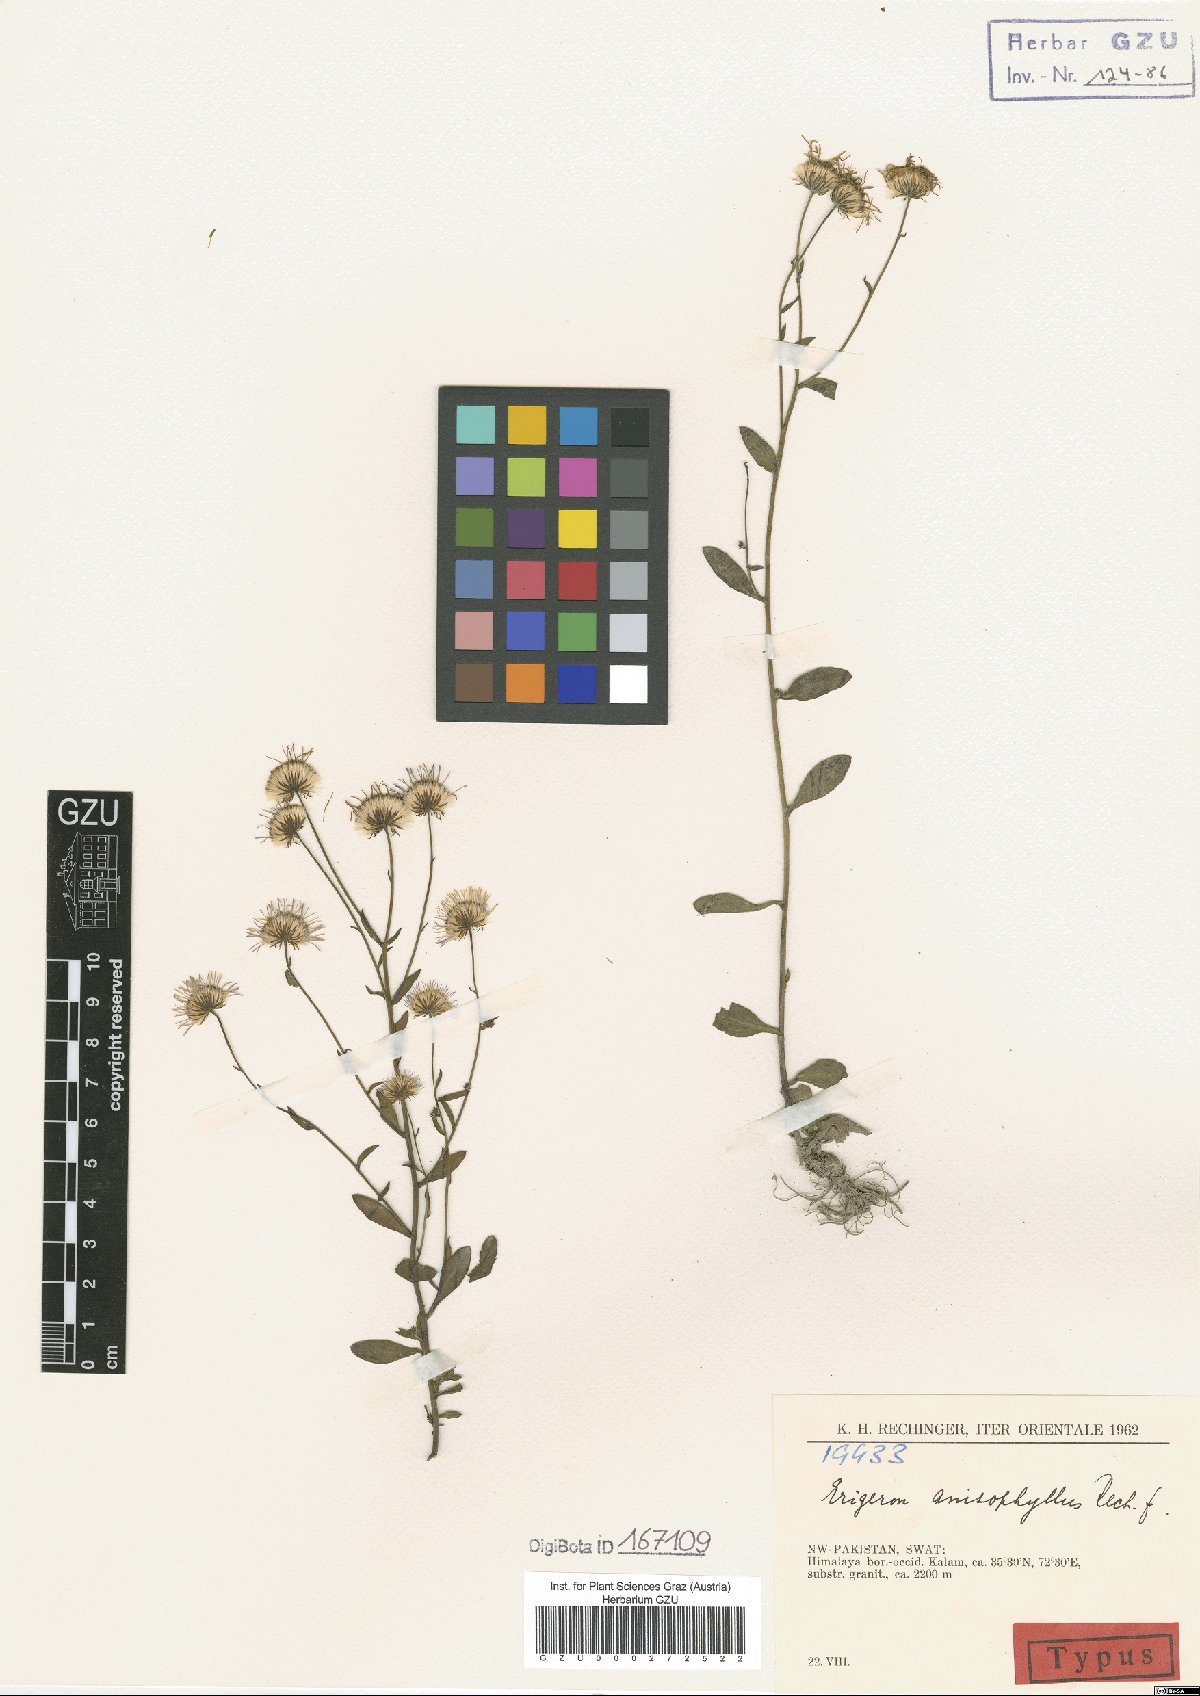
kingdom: Plantae
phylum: Tracheophyta
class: Magnoliopsida
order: Asterales
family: Asteraceae
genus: Erigeron
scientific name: Erigeron anisophyllus
